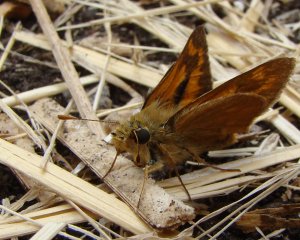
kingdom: Animalia
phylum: Arthropoda
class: Insecta
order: Lepidoptera
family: Hesperiidae
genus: Ochlodes
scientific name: Ochlodes sylvanoides
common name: Woodland Skipper
